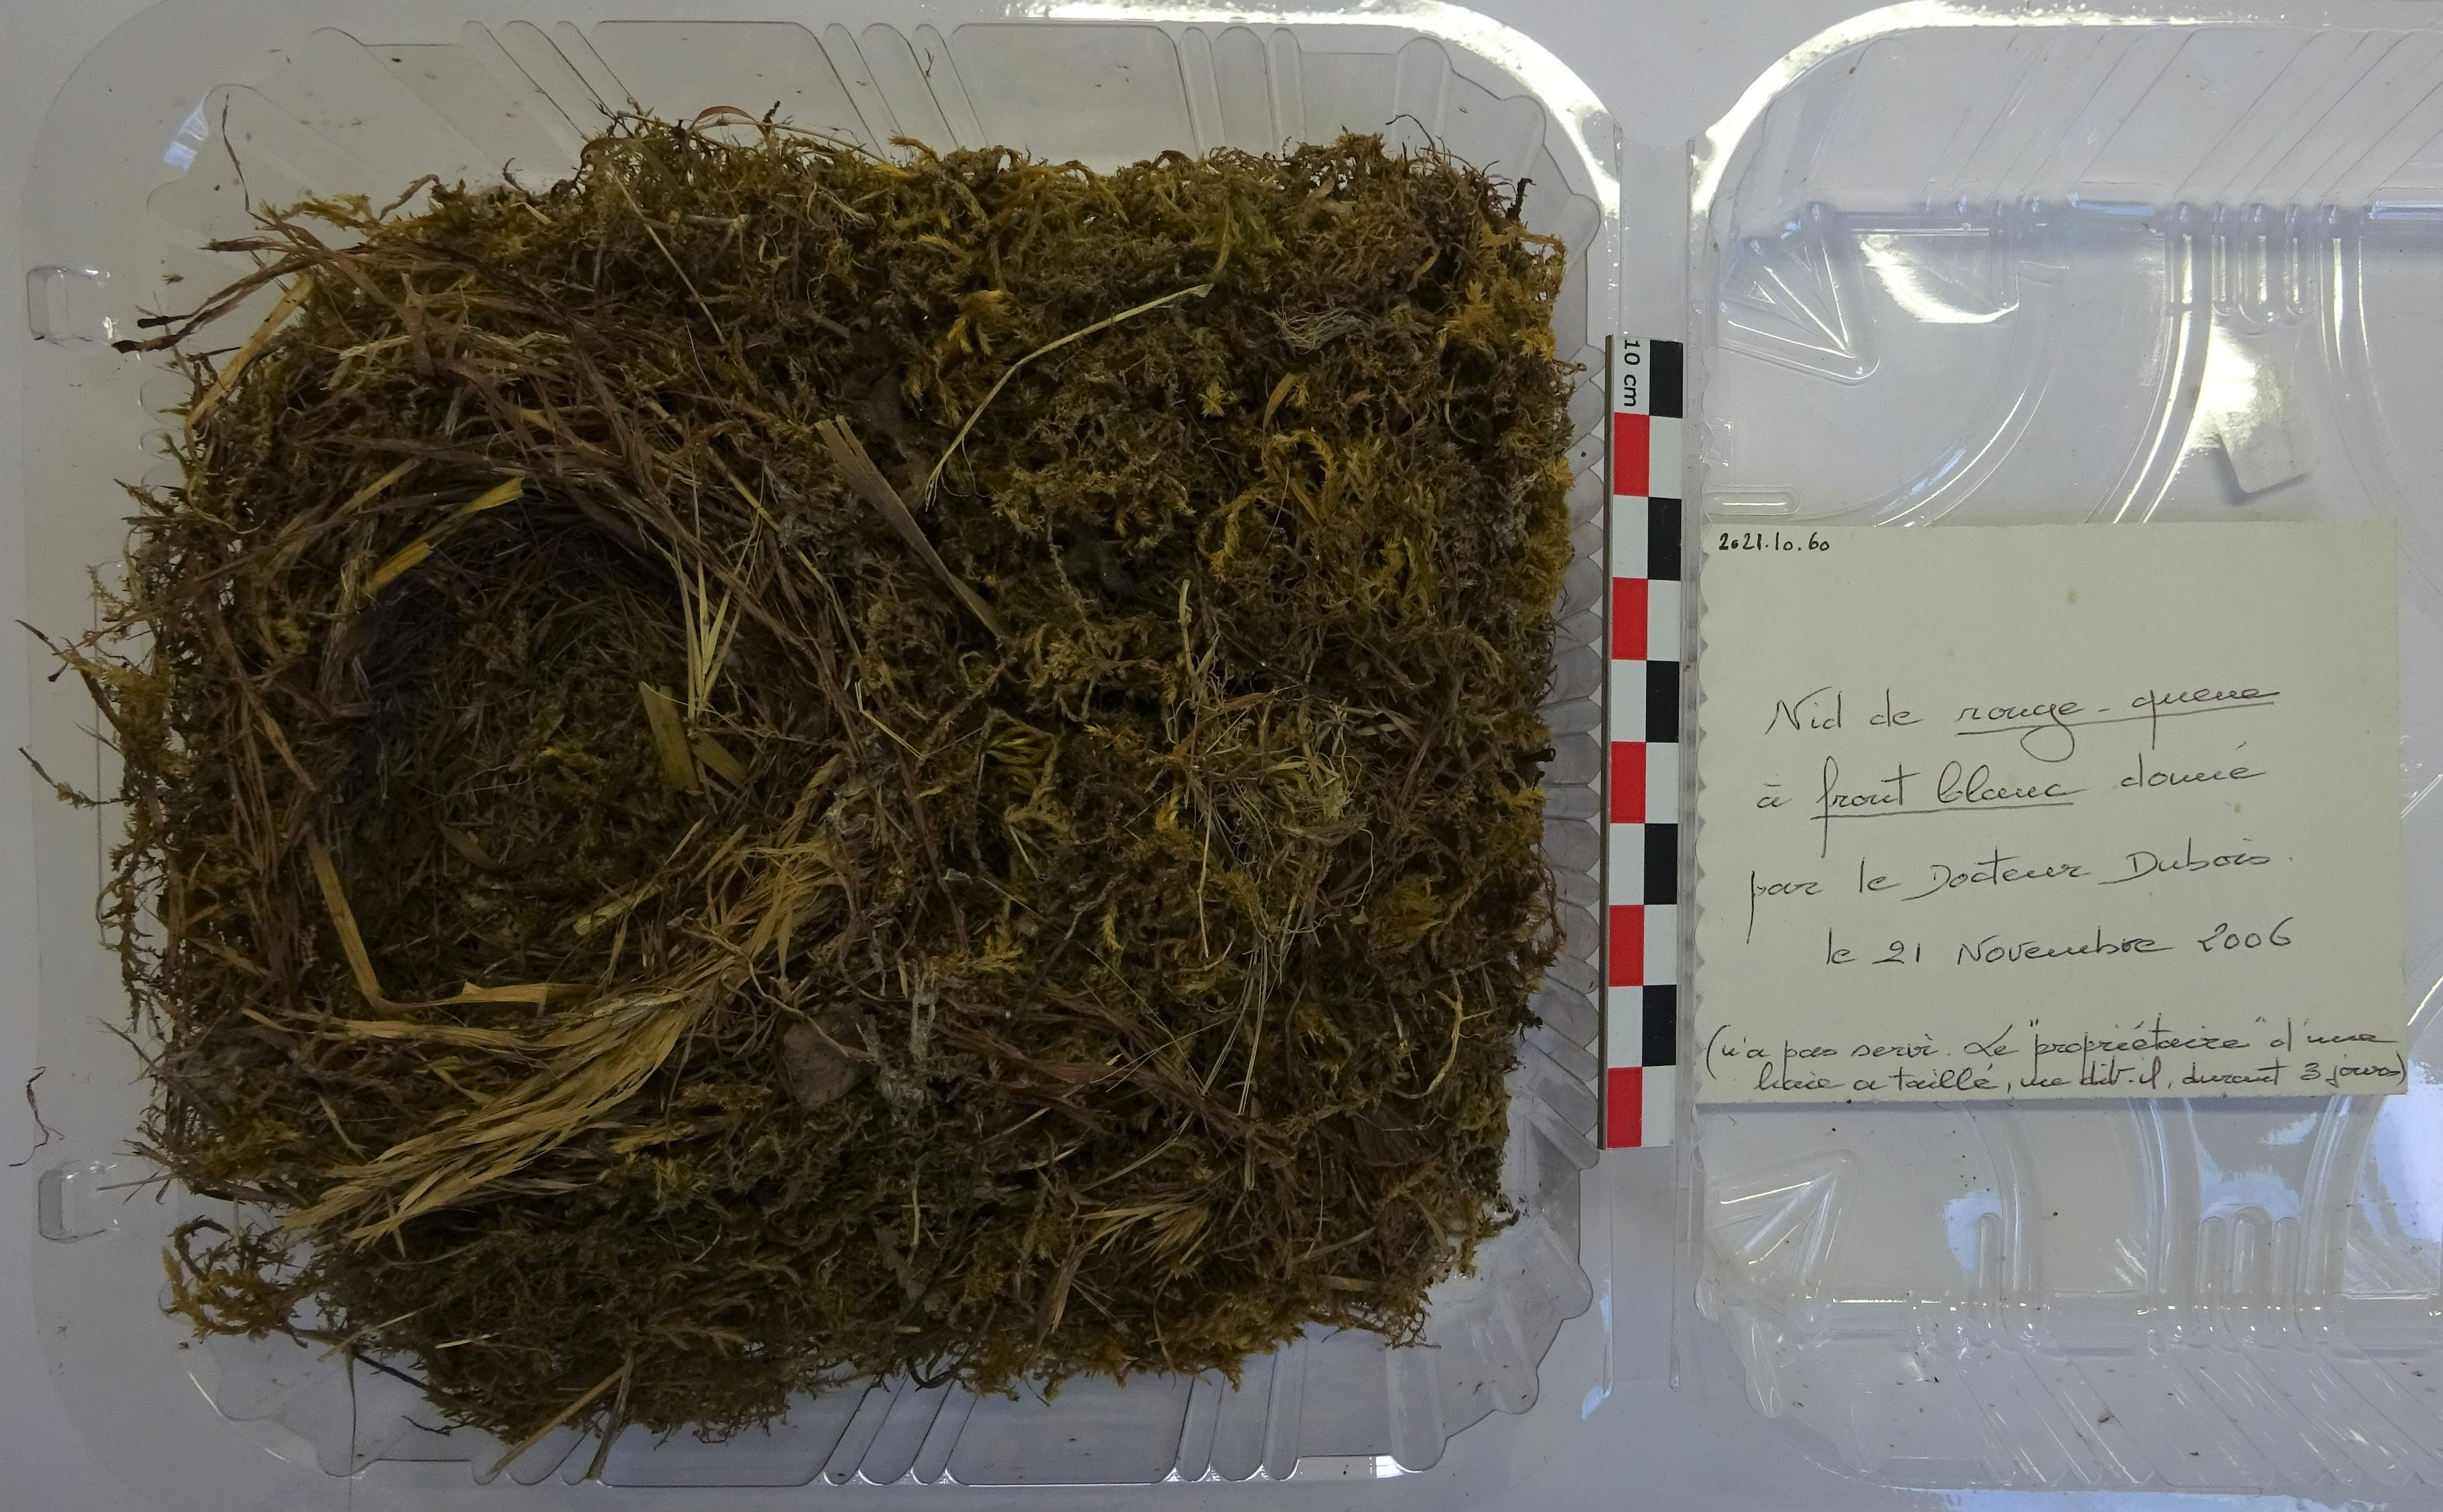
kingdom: Animalia
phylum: Chordata
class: Aves
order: Passeriformes
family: Muscicapidae
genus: Phoenicurus
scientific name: Phoenicurus phoenicurus
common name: Common redstart
